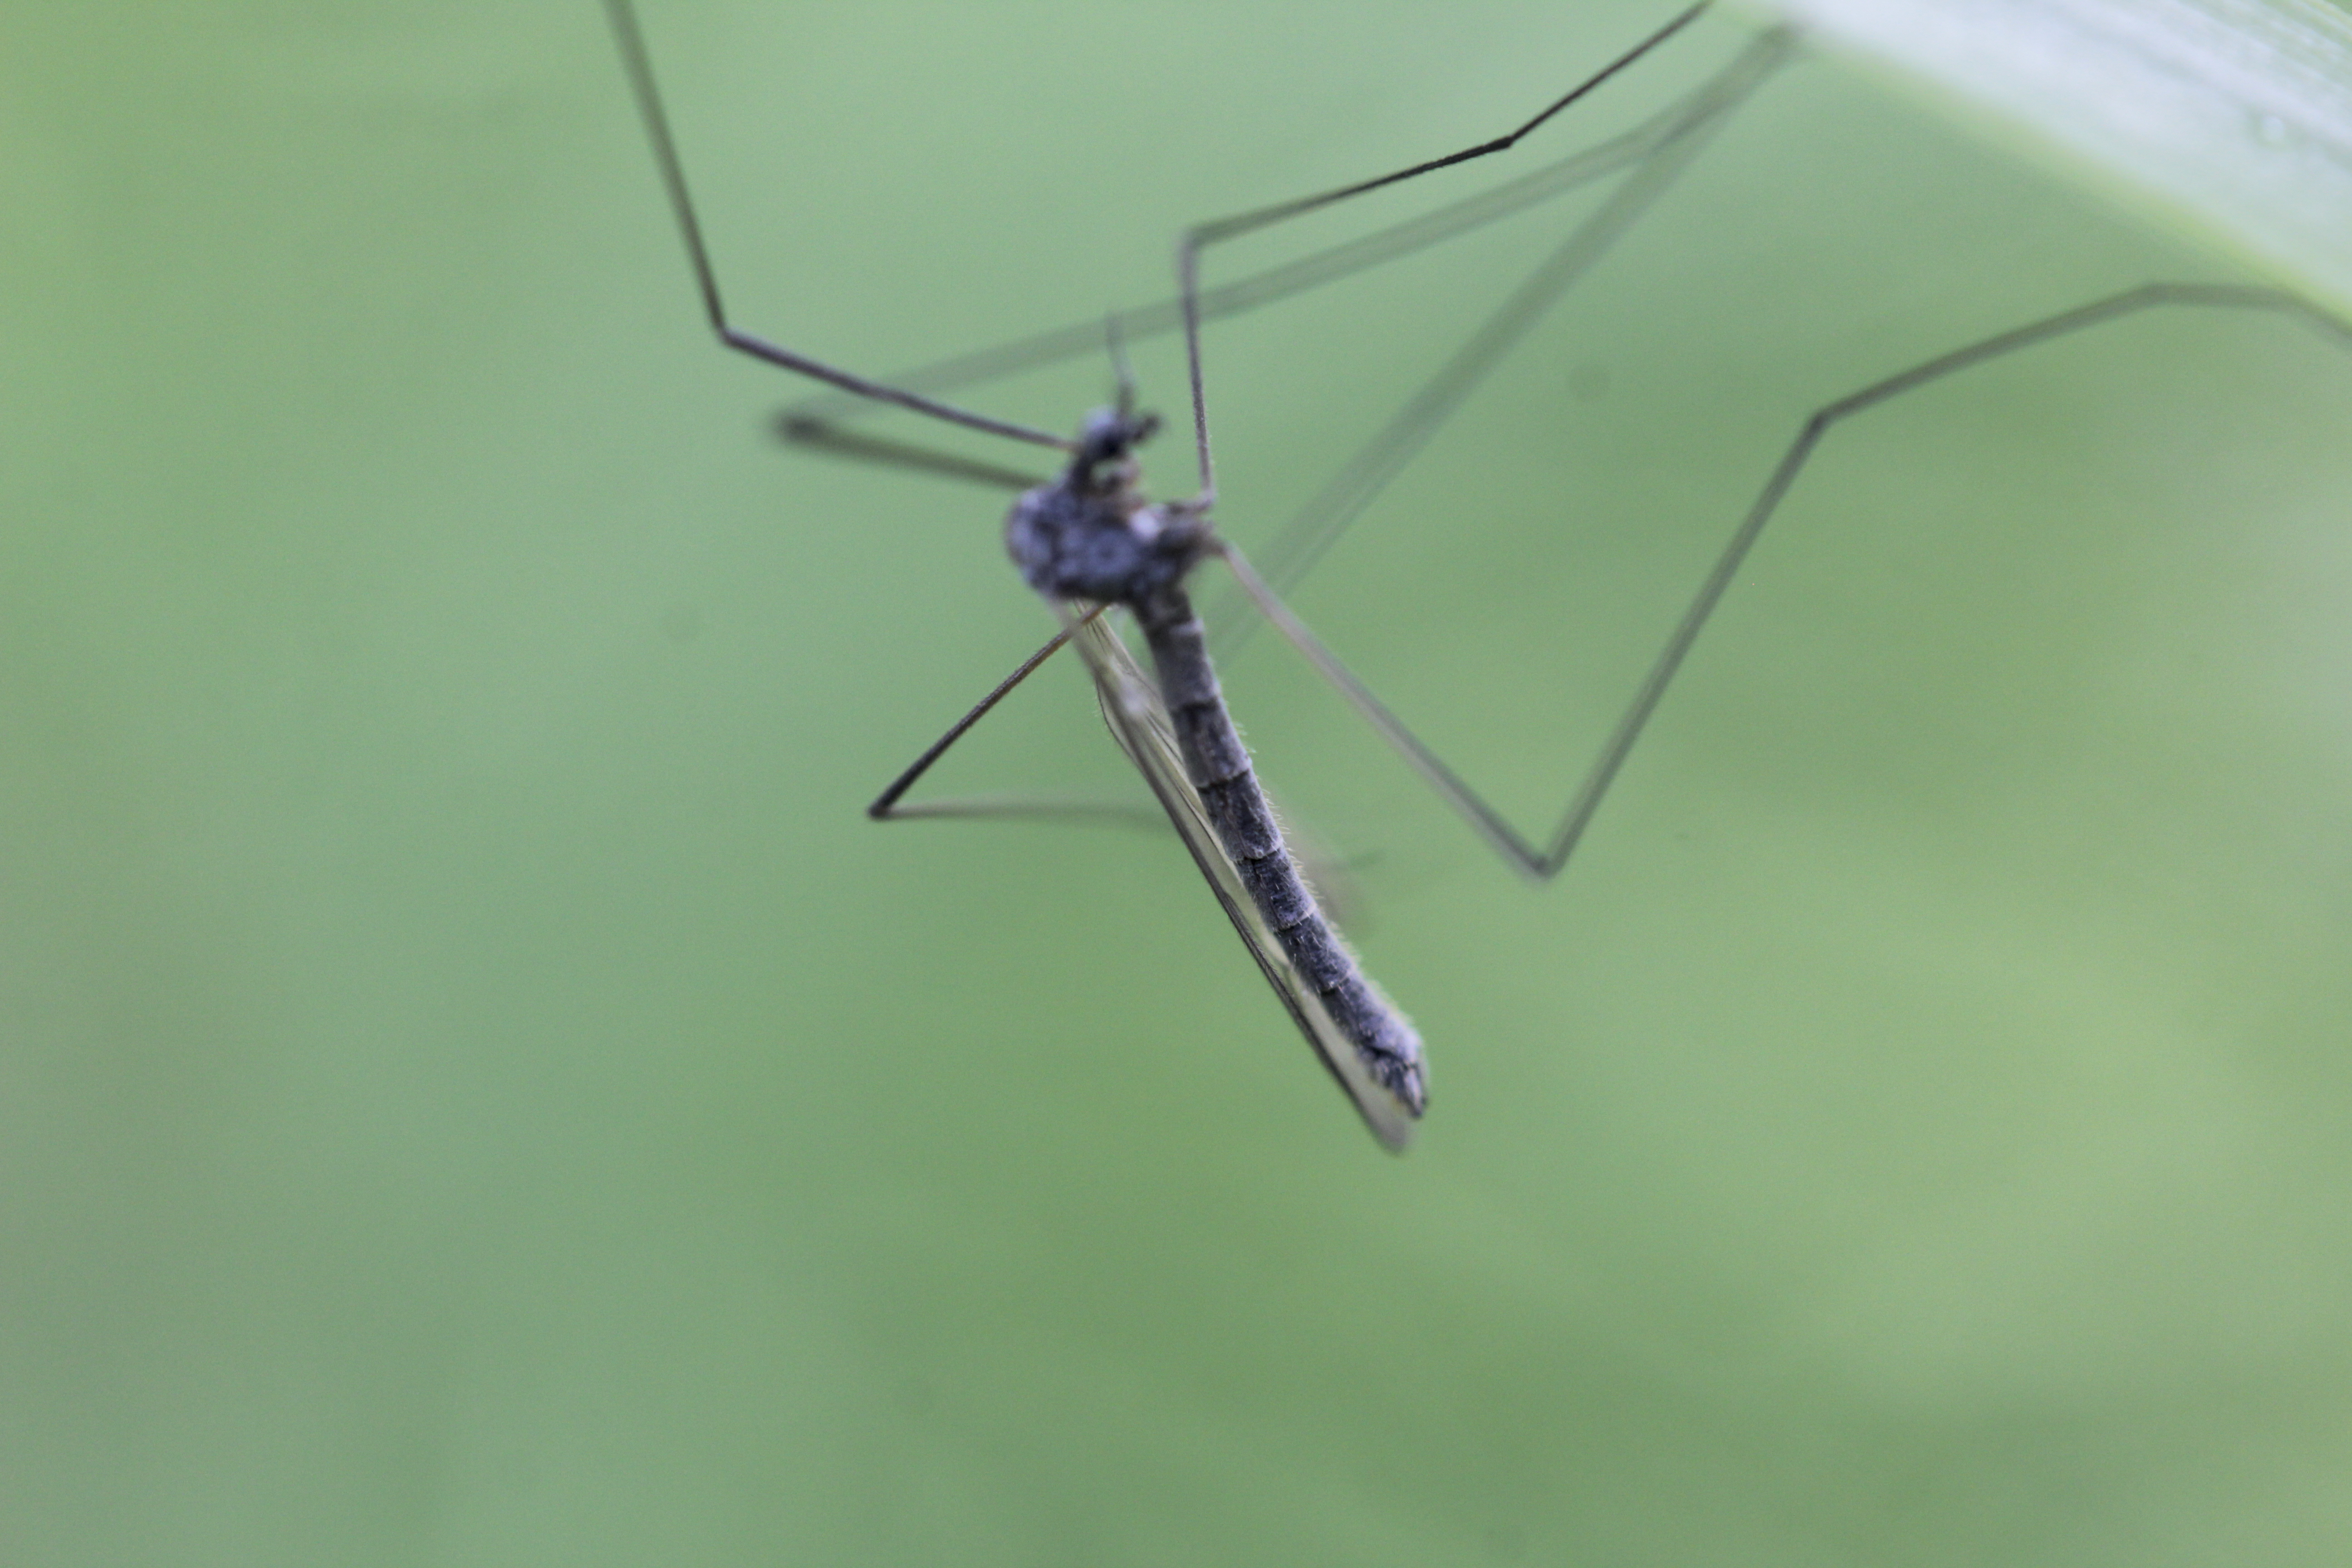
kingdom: Animalia
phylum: Arthropoda
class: Insecta
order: Diptera
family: Pediciidae
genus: Tricyphona
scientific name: Tricyphona
